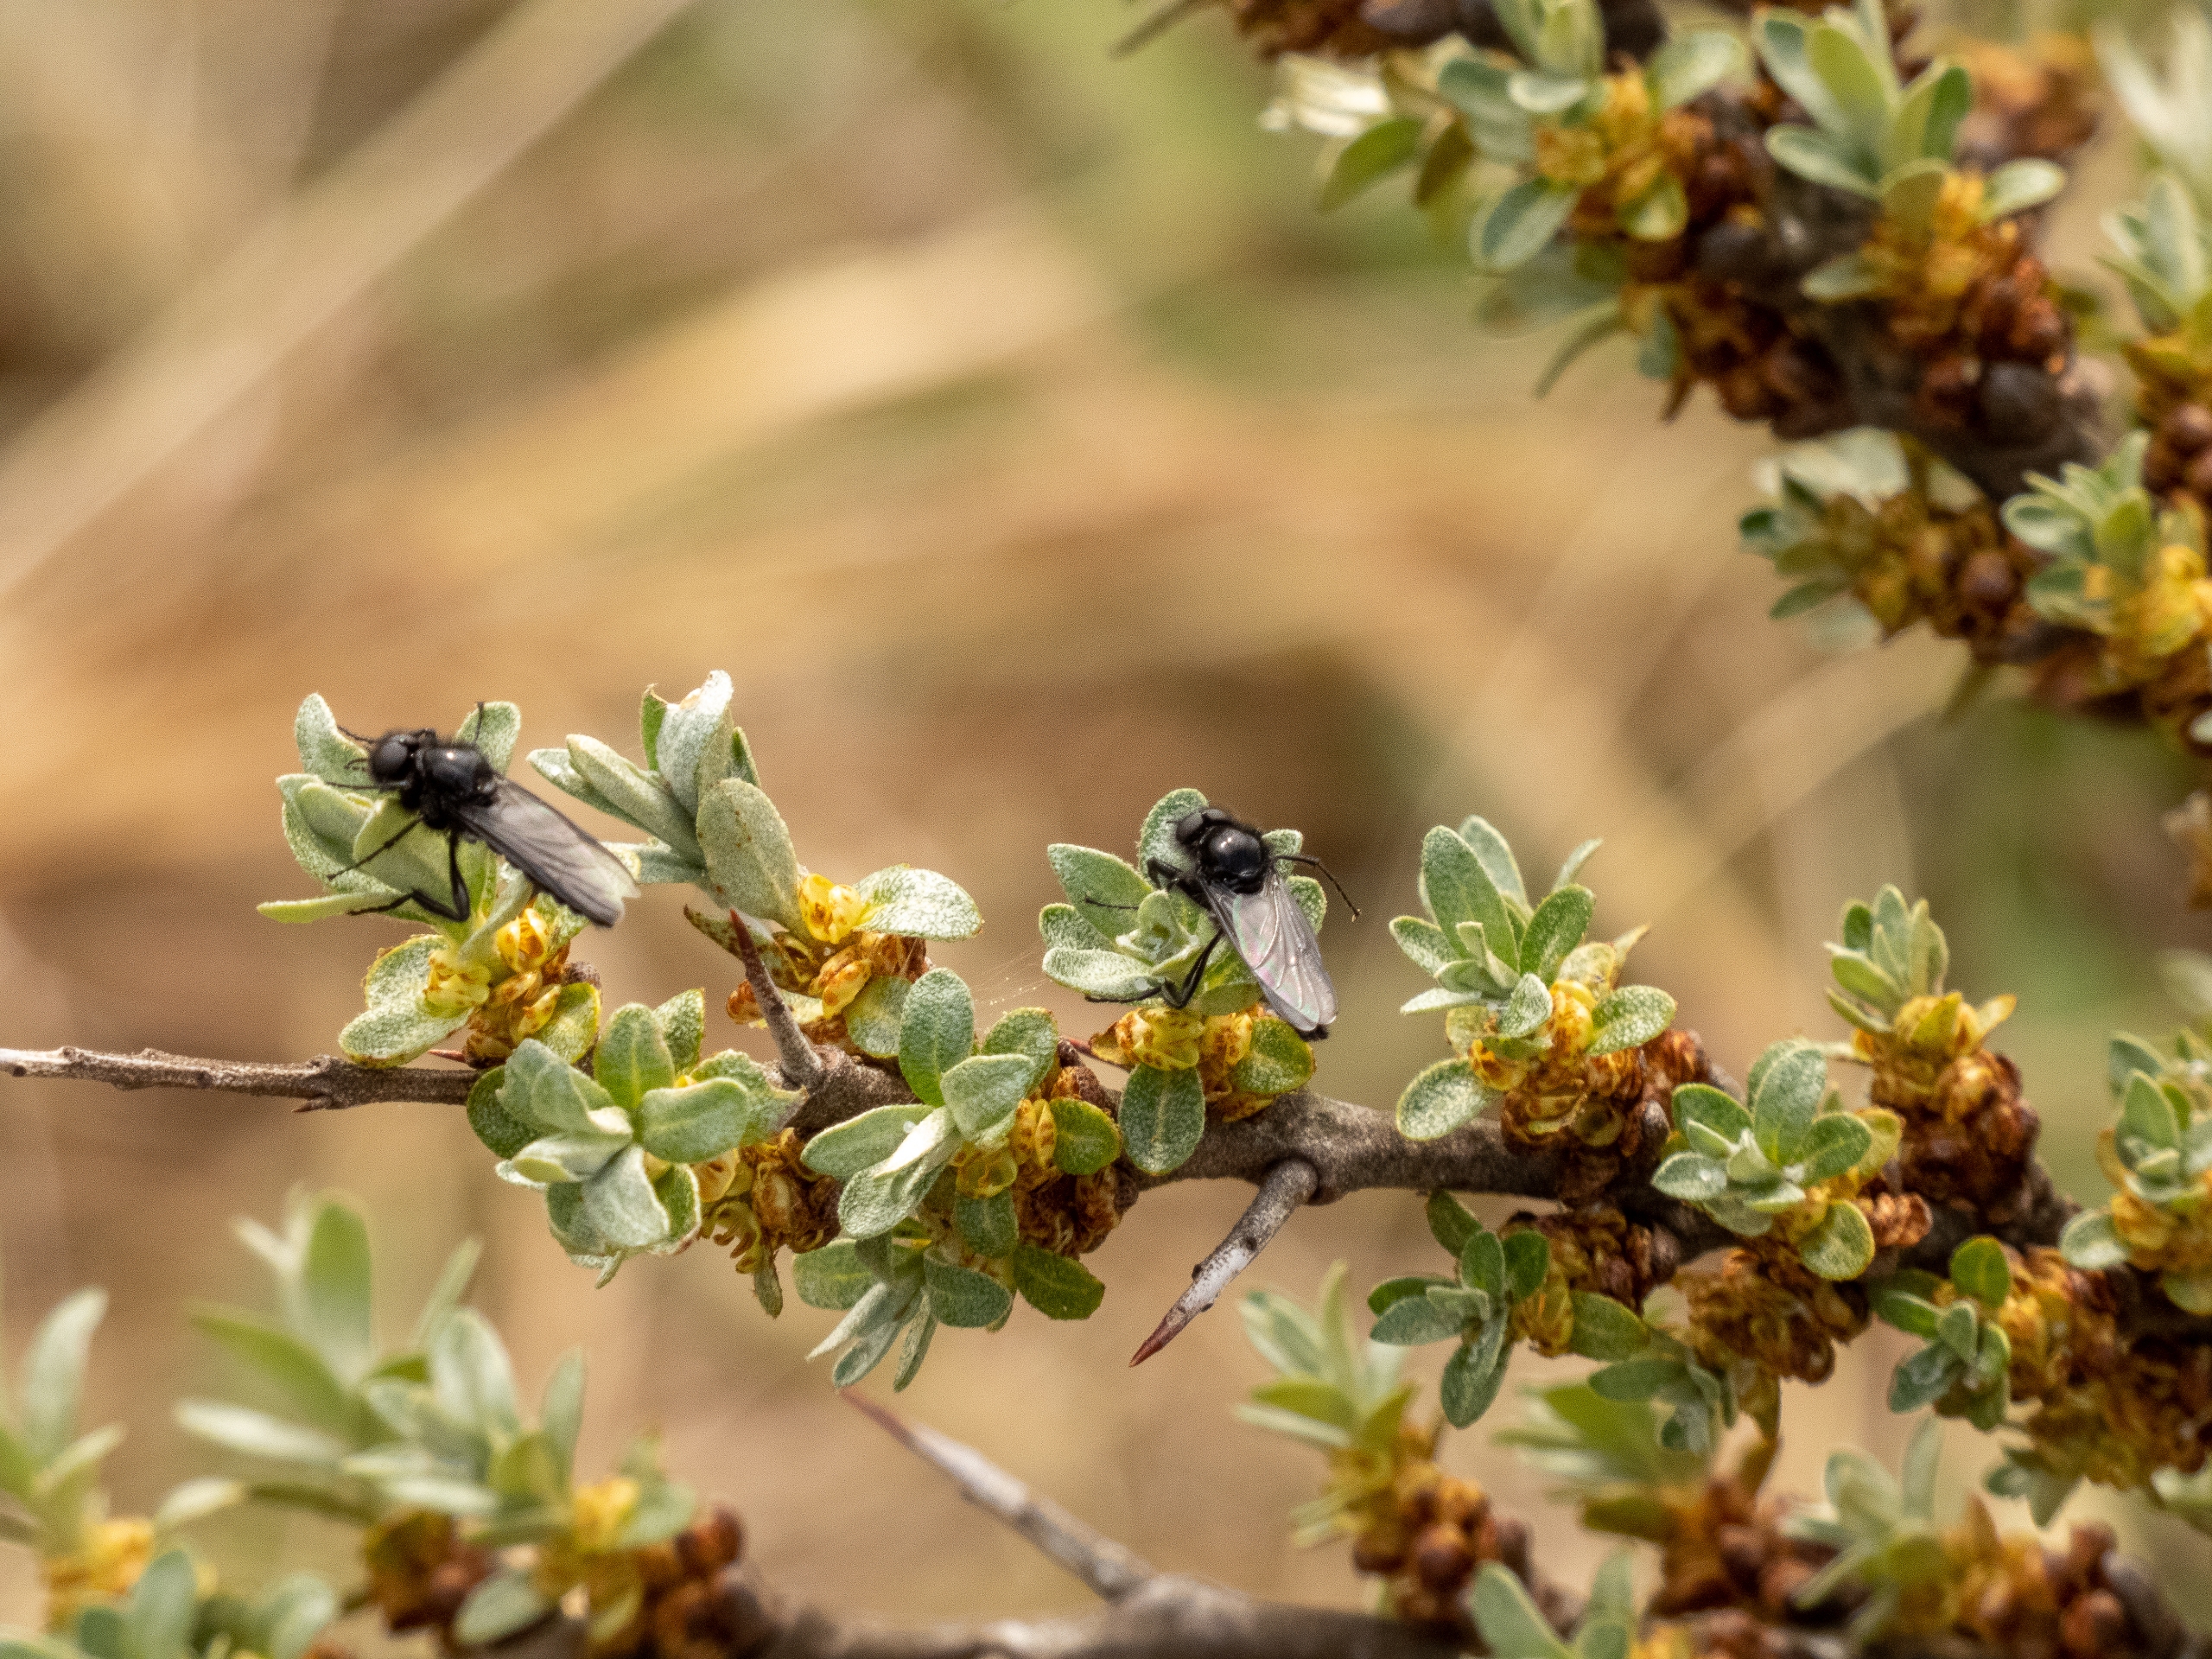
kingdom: Animalia
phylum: Arthropoda
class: Insecta
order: Diptera
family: Bibionidae
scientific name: Bibionidae
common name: Hårmyg
